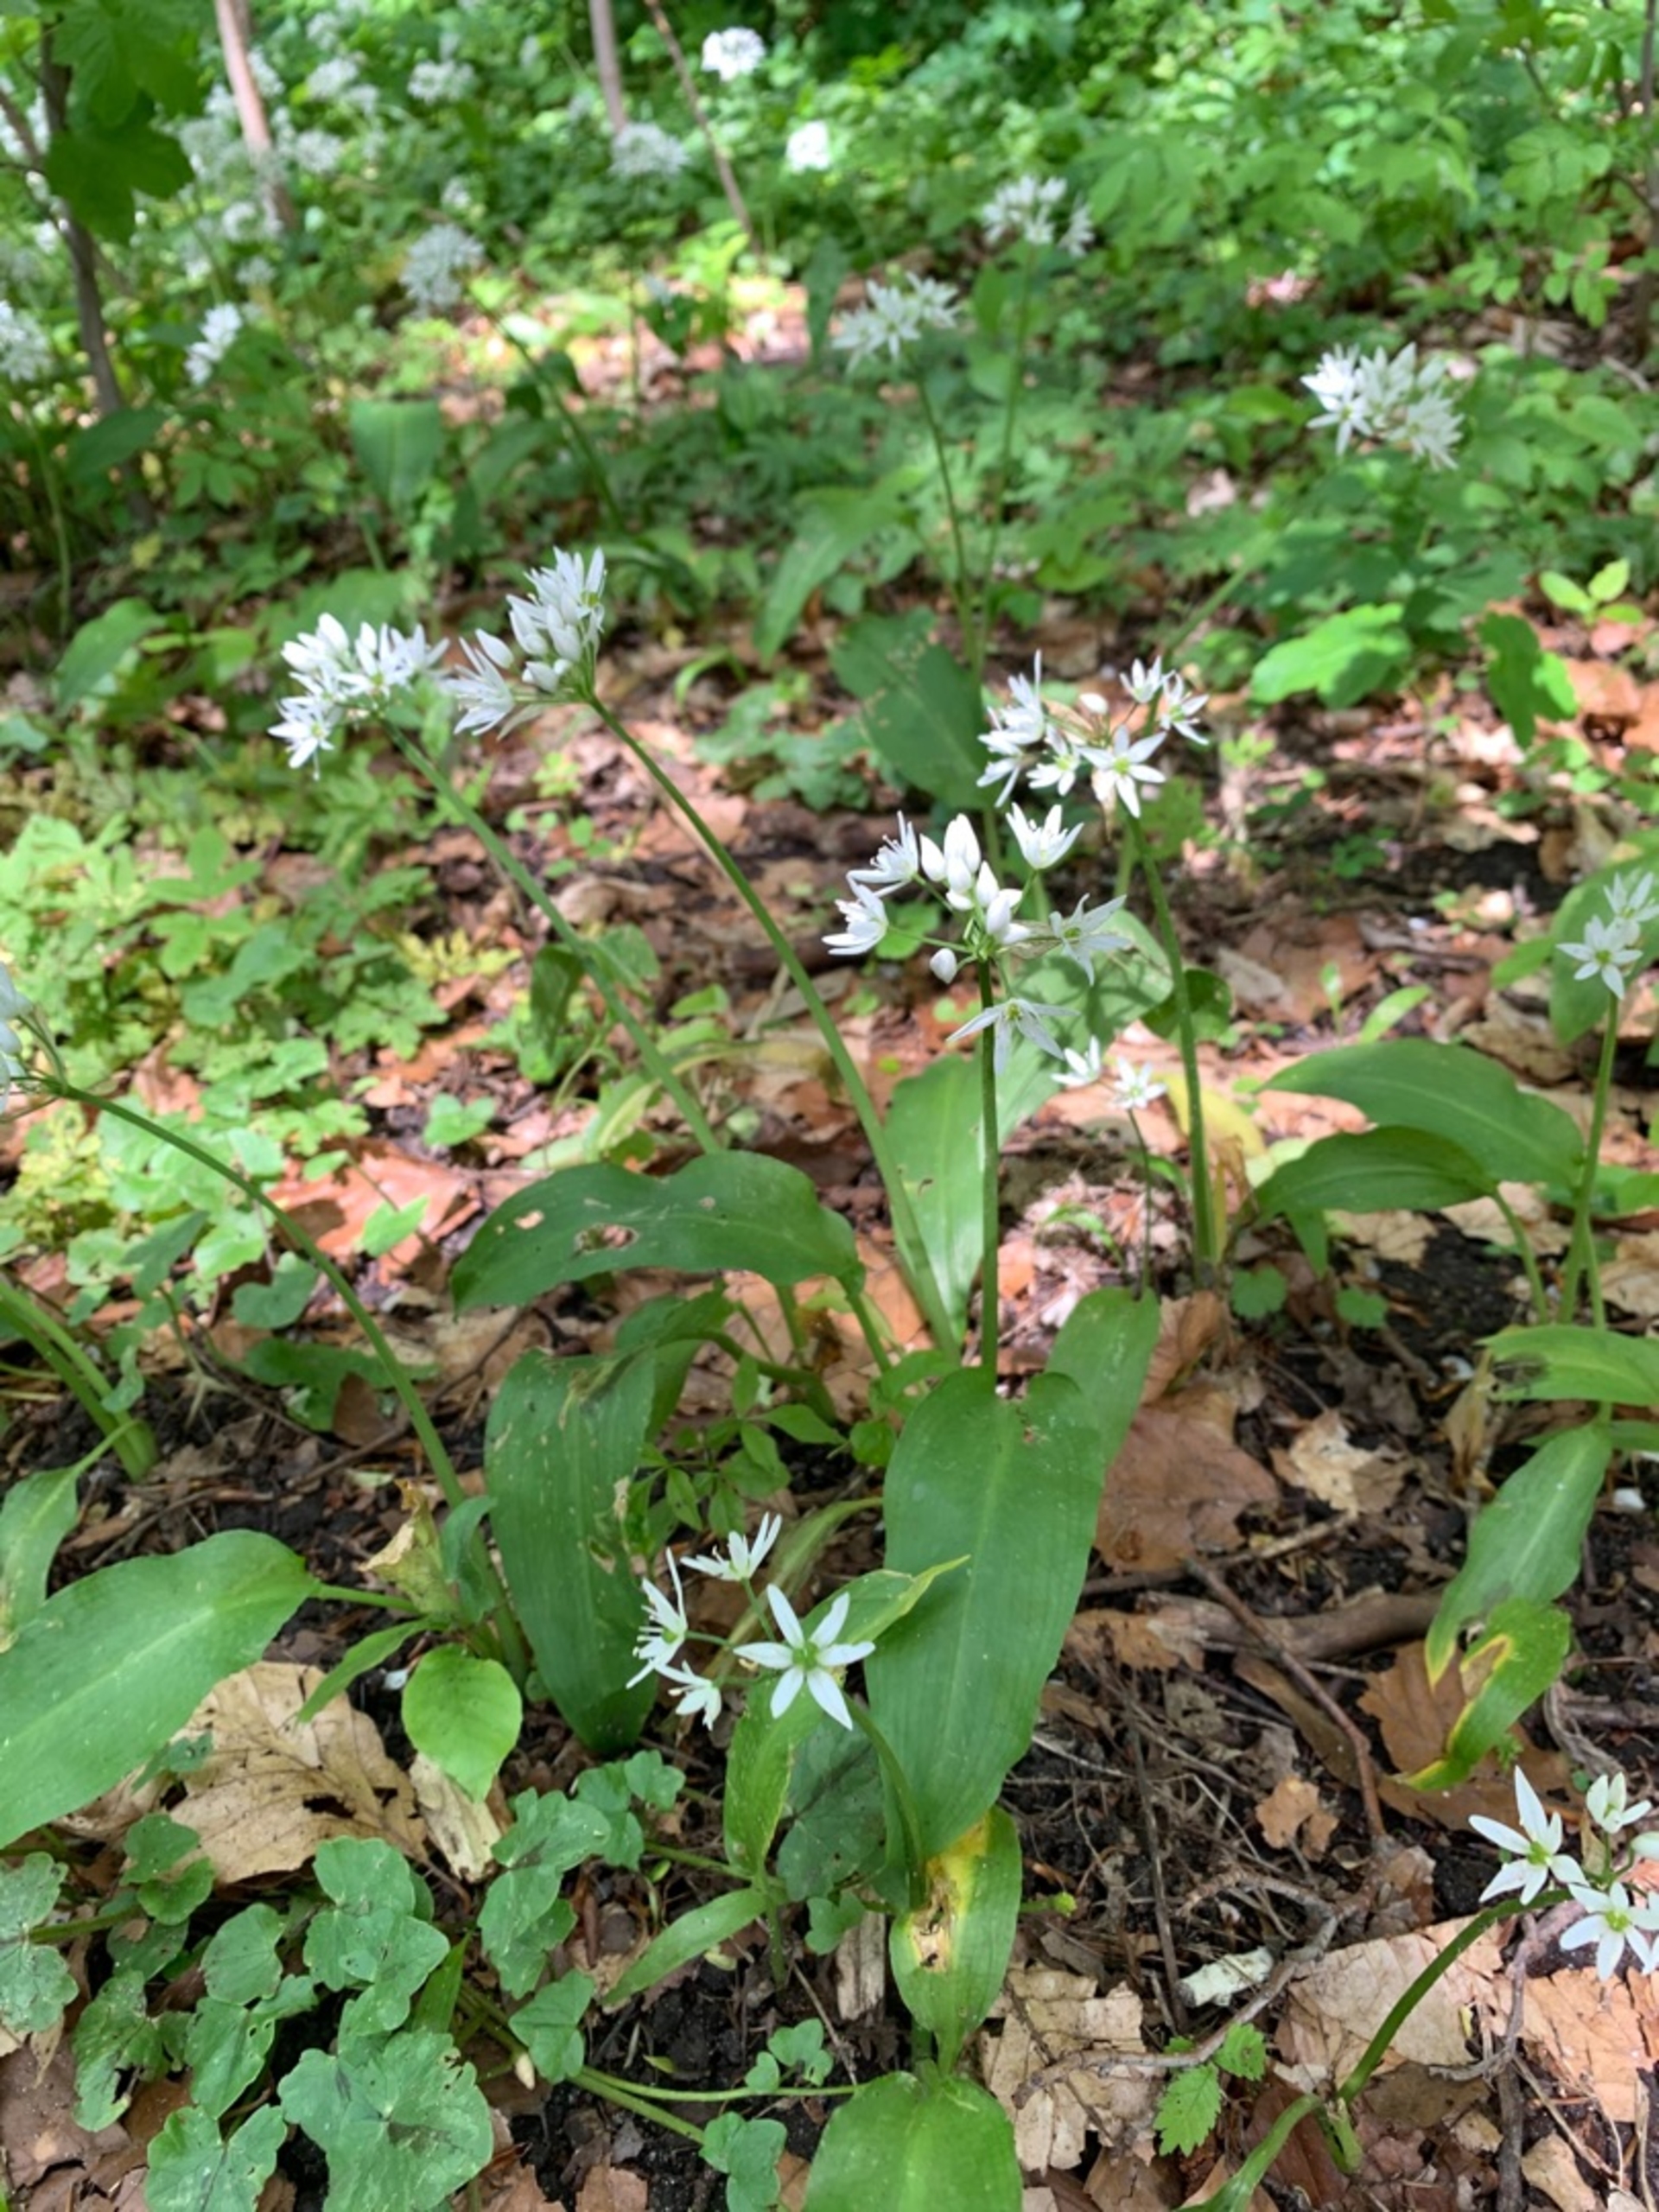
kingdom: Plantae
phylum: Tracheophyta
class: Liliopsida
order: Asparagales
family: Amaryllidaceae
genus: Allium
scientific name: Allium ursinum
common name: Rams-løg
